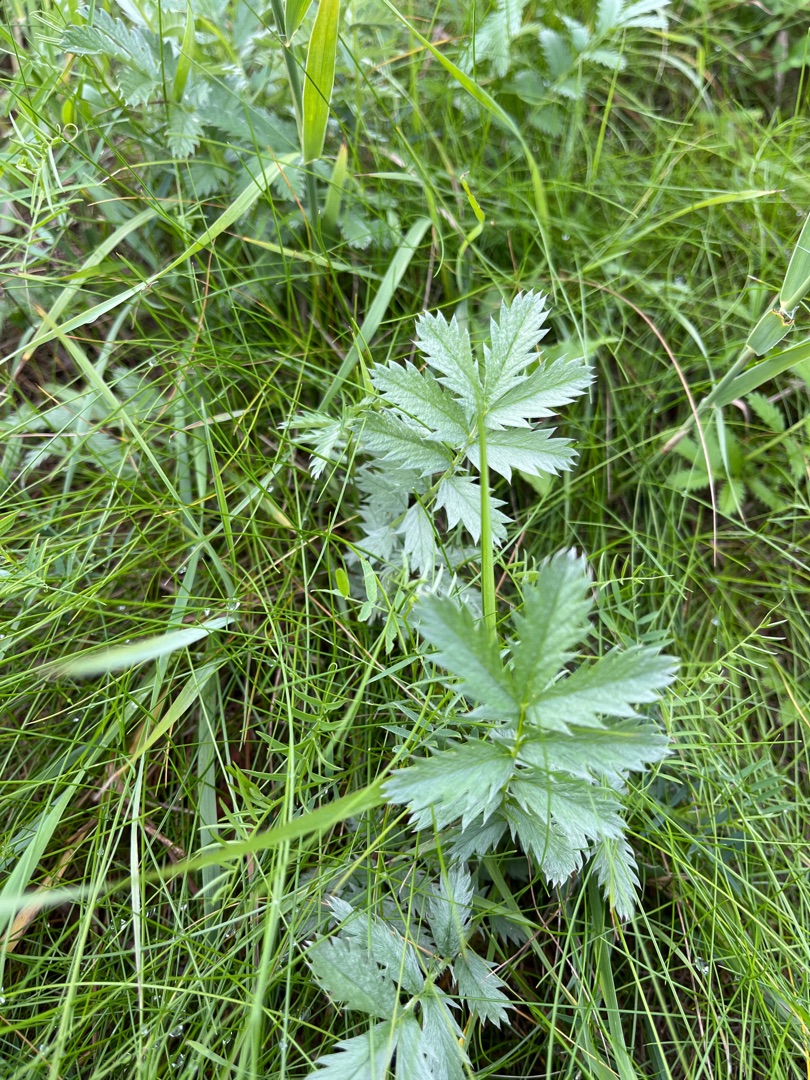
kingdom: Plantae
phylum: Tracheophyta
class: Magnoliopsida
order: Rosales
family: Rosaceae
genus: Argentina
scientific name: Argentina anserina
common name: Gåsepotentil
